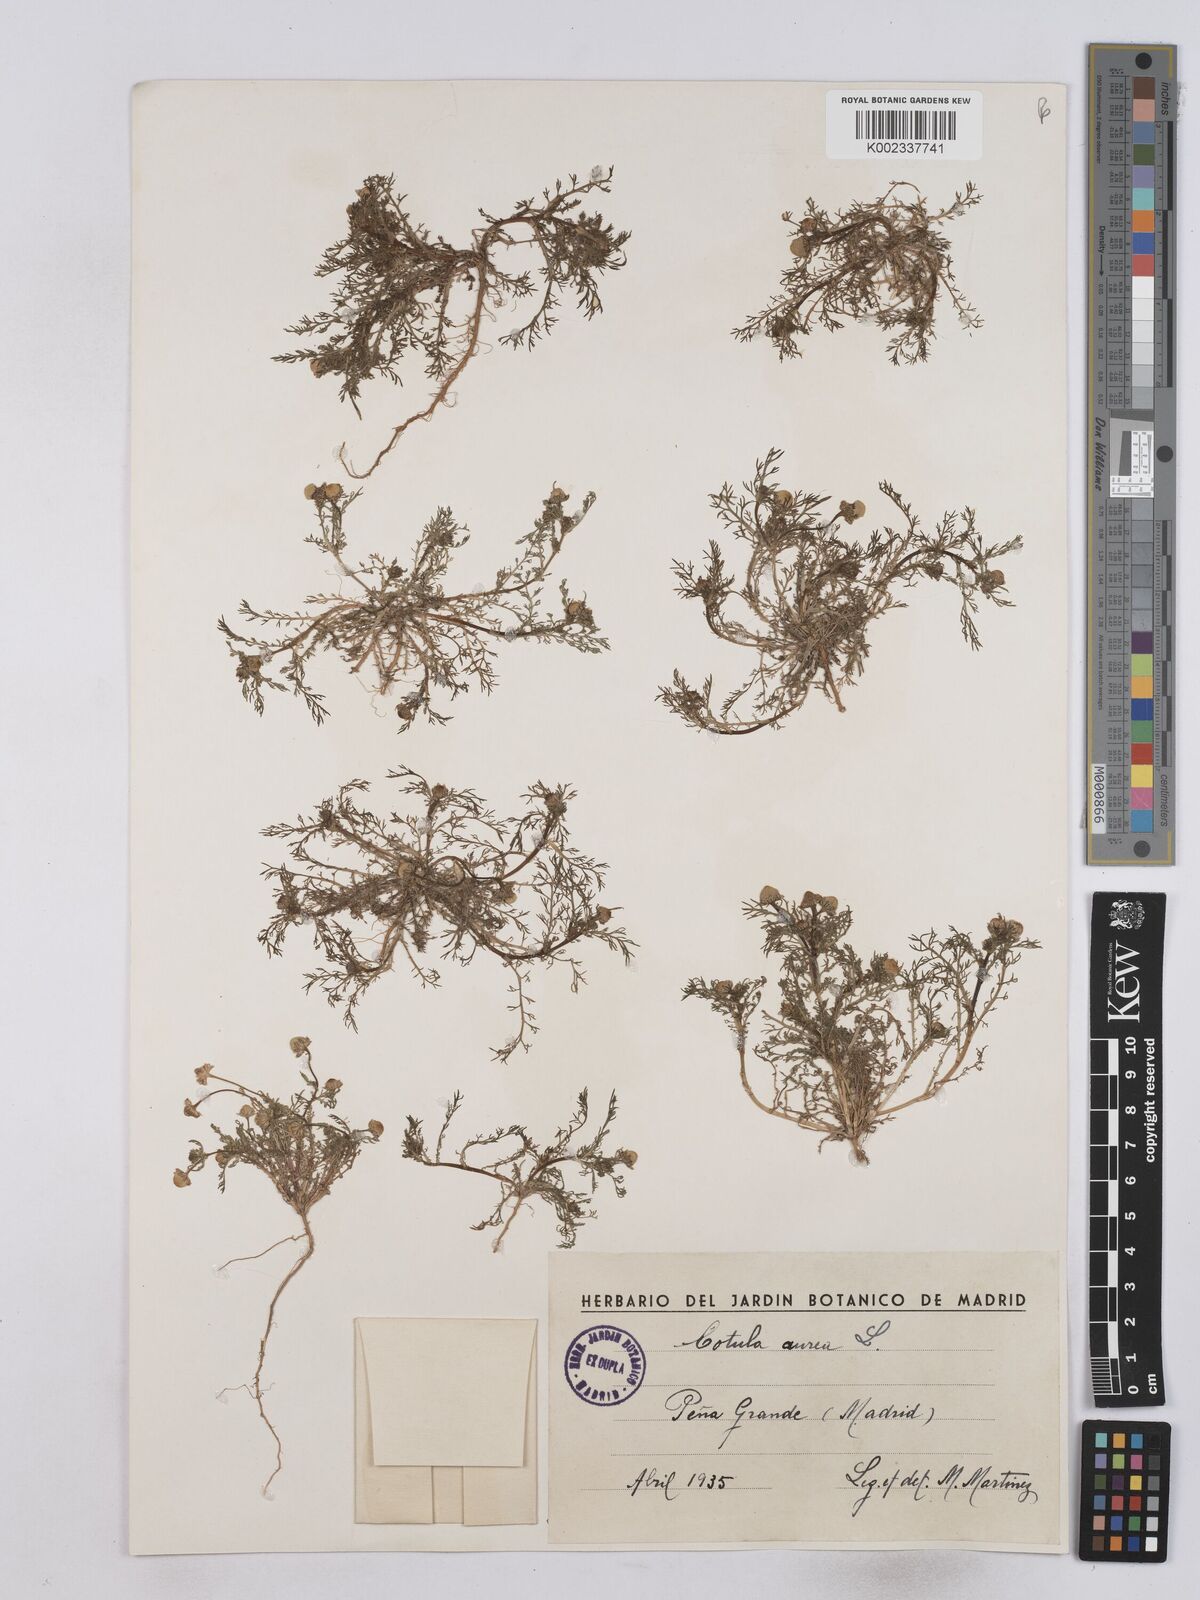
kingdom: Plantae
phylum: Tracheophyta
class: Magnoliopsida
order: Asterales
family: Asteraceae
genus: Matricaria
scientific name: Matricaria aurea
